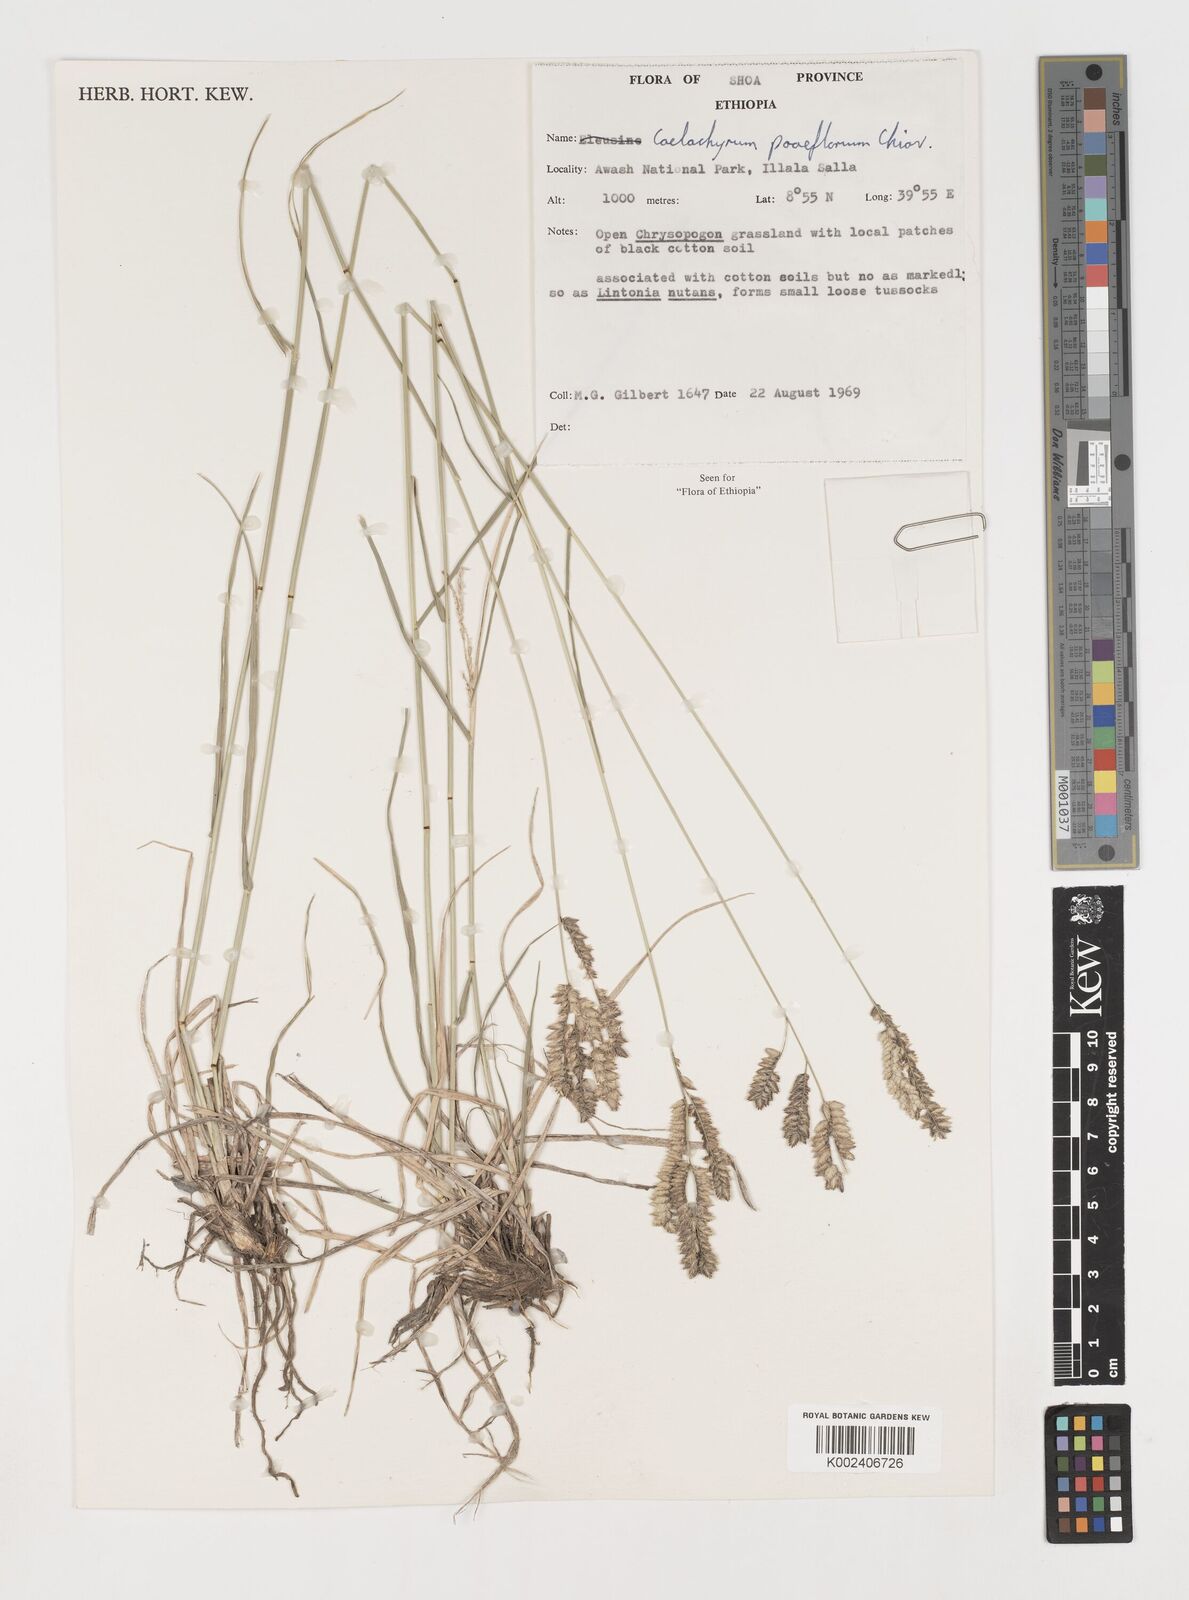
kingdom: Plantae
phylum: Tracheophyta
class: Liliopsida
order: Poales
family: Poaceae
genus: Coelachyrum
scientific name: Coelachyrum poiflorum
